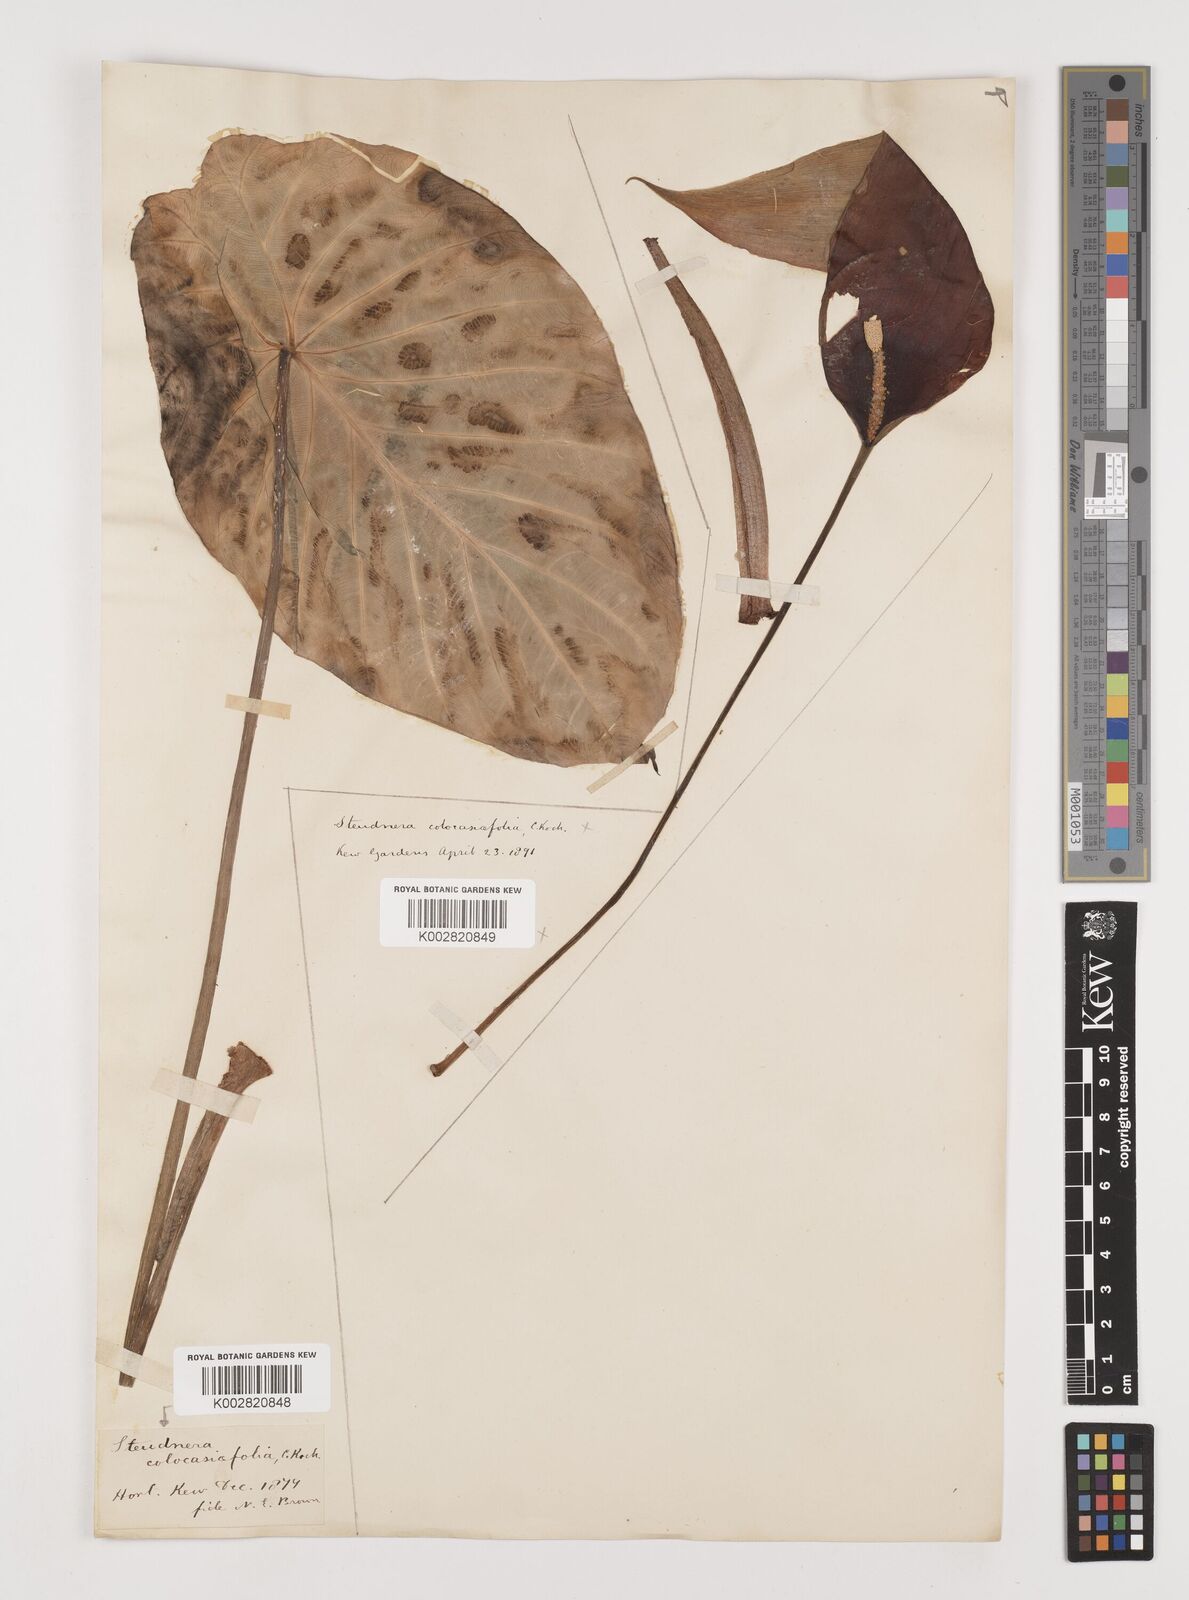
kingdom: Plantae
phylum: Tracheophyta
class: Liliopsida
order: Alismatales
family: Araceae
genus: Steudnera
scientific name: Steudnera colocasiifolia
